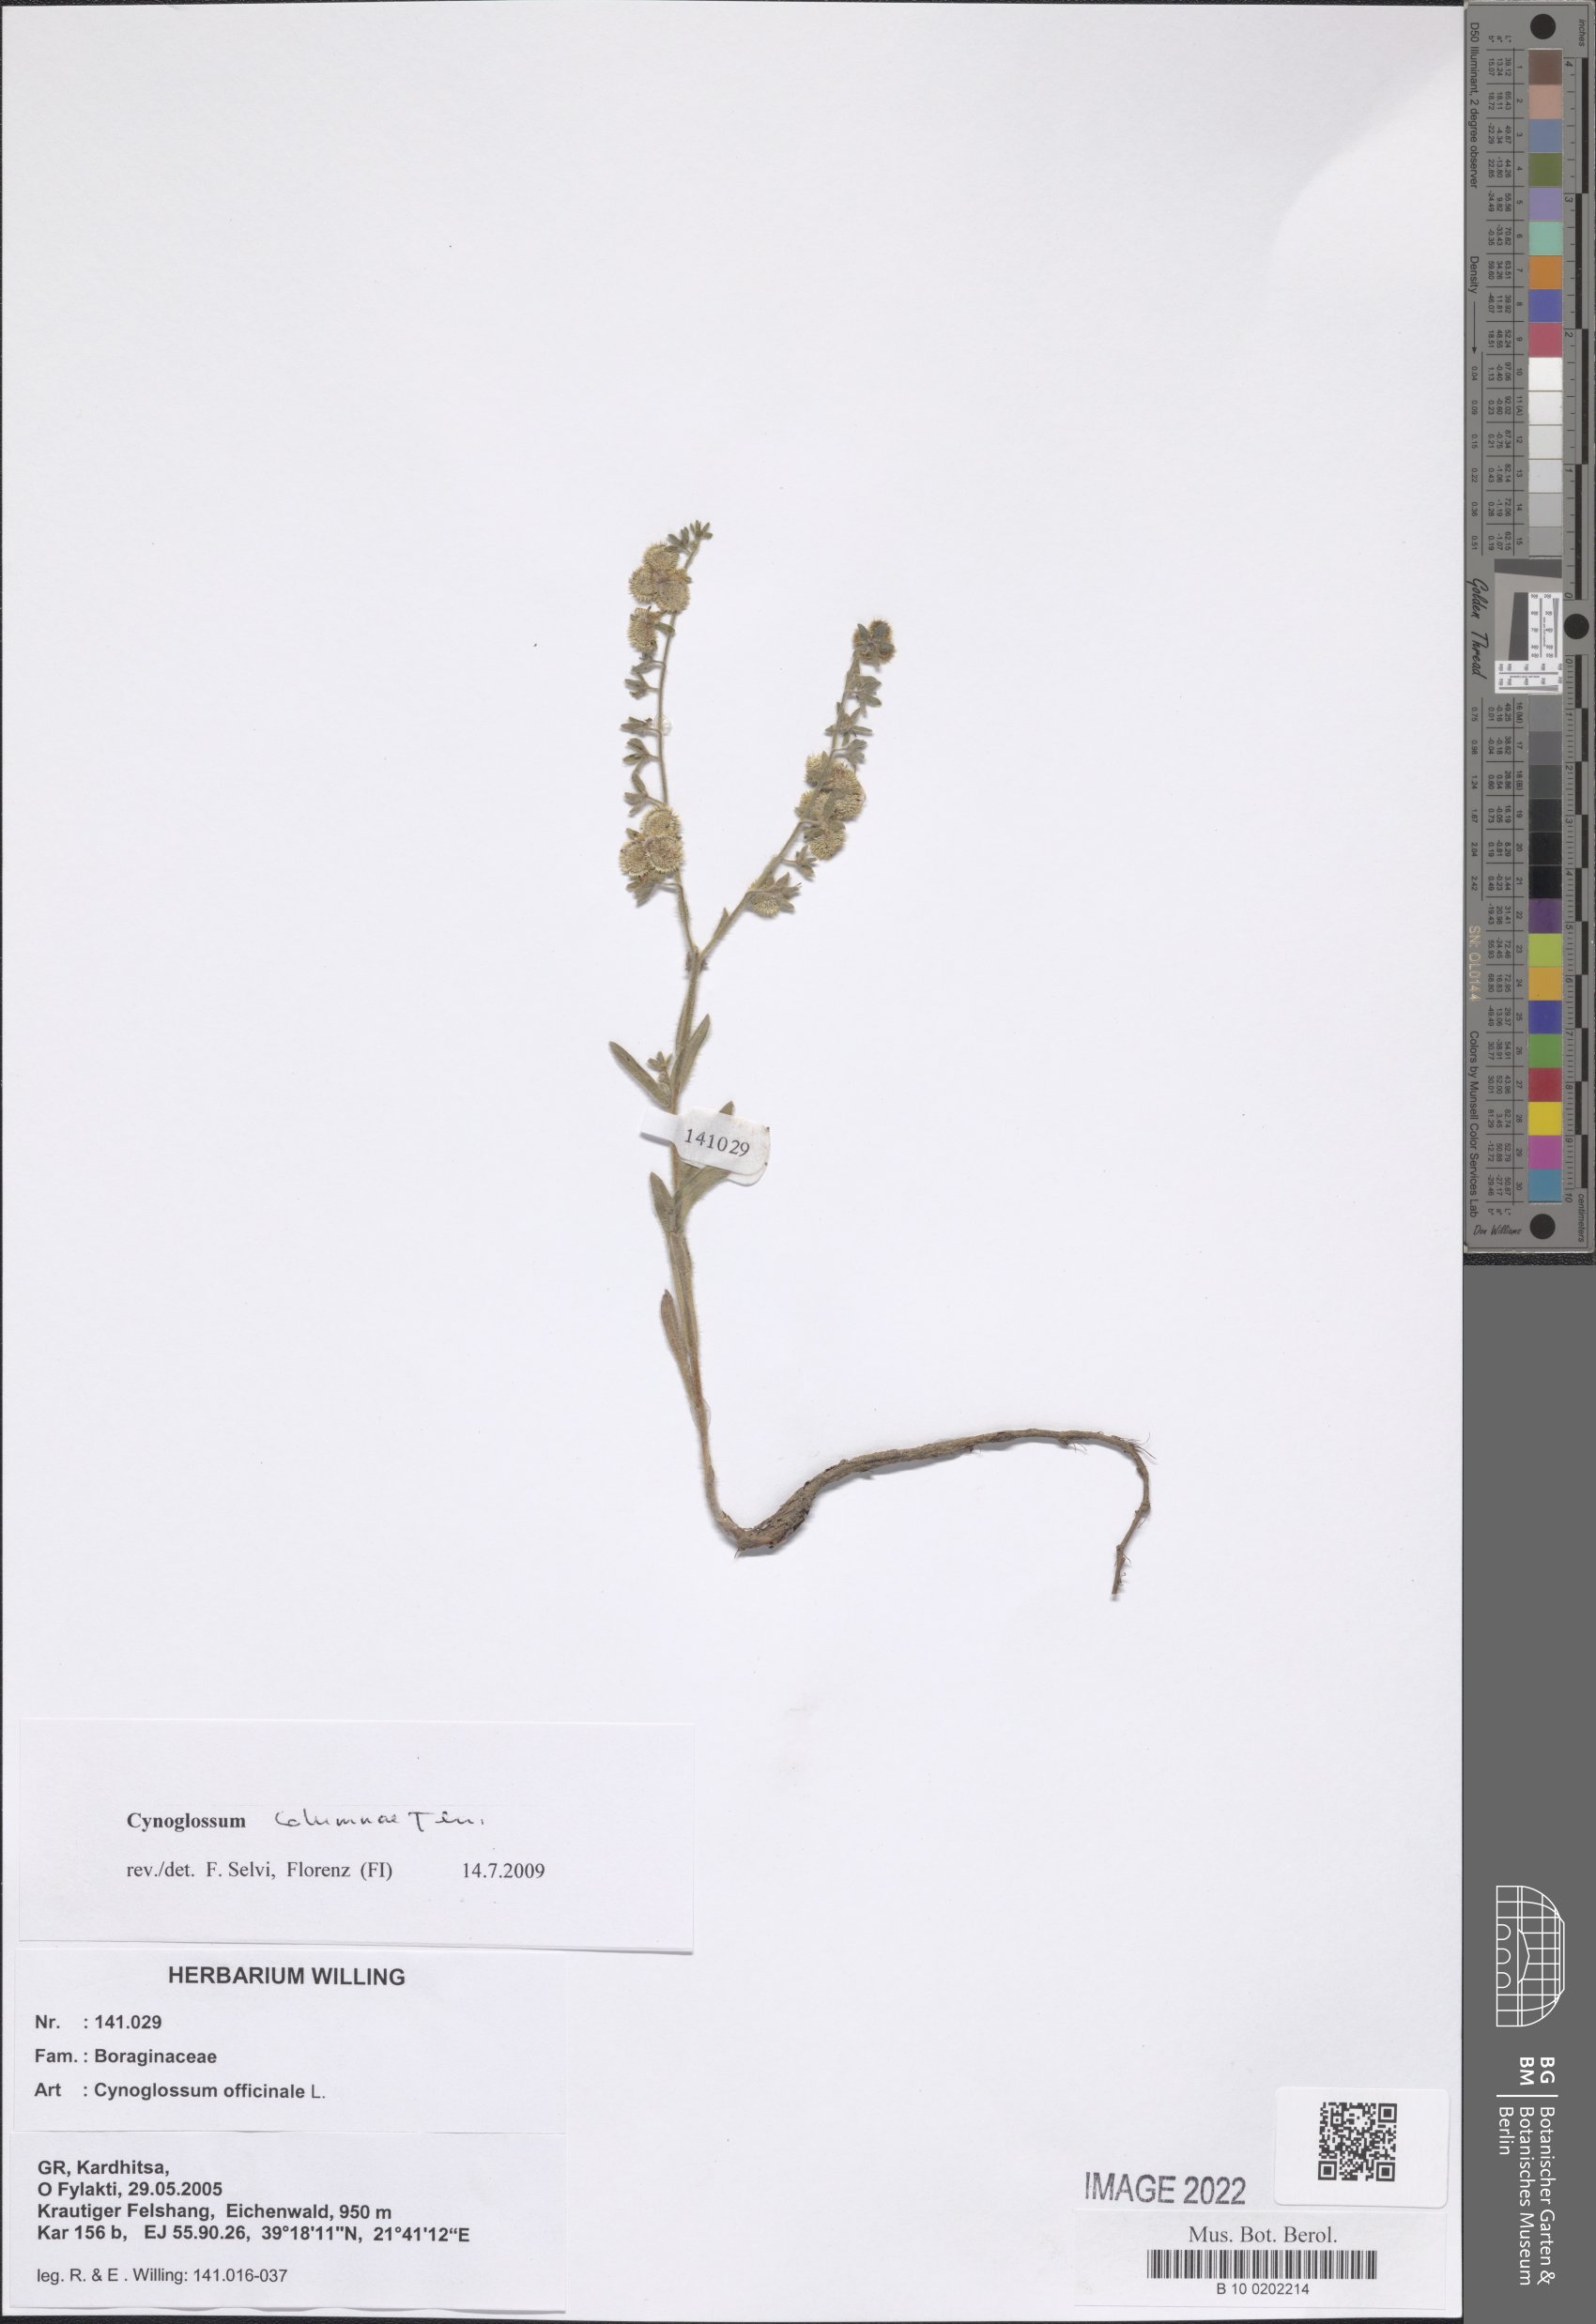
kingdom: Plantae
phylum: Tracheophyta
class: Magnoliopsida
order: Boraginales
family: Boraginaceae
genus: Rindera
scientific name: Rindera columnae
